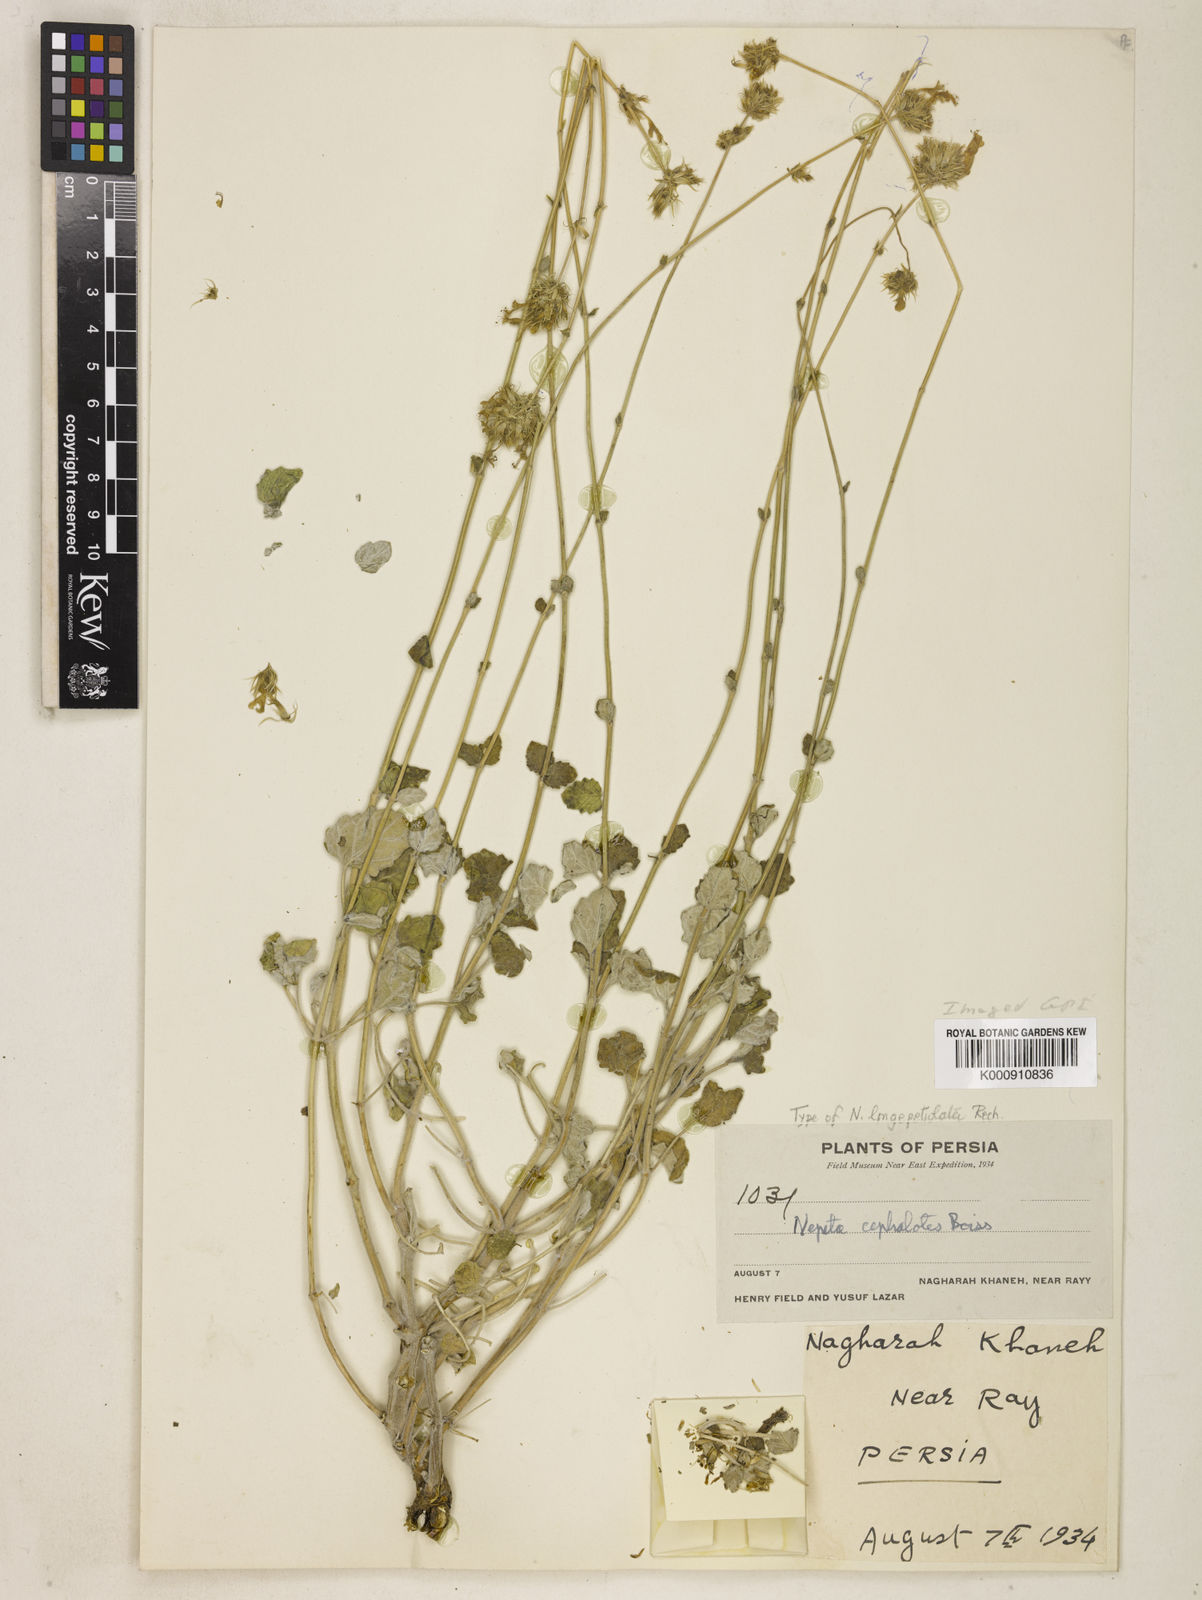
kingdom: Plantae
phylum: Tracheophyta
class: Magnoliopsida
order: Lamiales
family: Lamiaceae
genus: Nepeta
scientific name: Nepeta cephalotes
